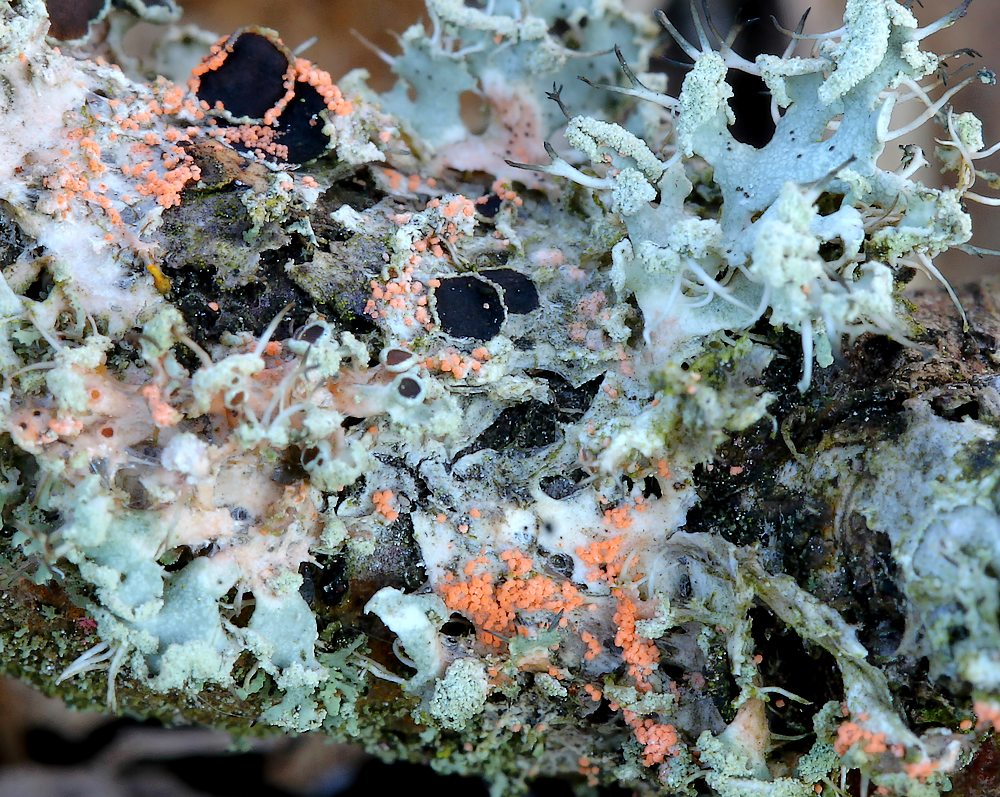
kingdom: Fungi
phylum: Basidiomycota
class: Agaricomycetes
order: Corticiales
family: Corticiaceae
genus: Erythricium
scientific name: Erythricium aurantiacum
